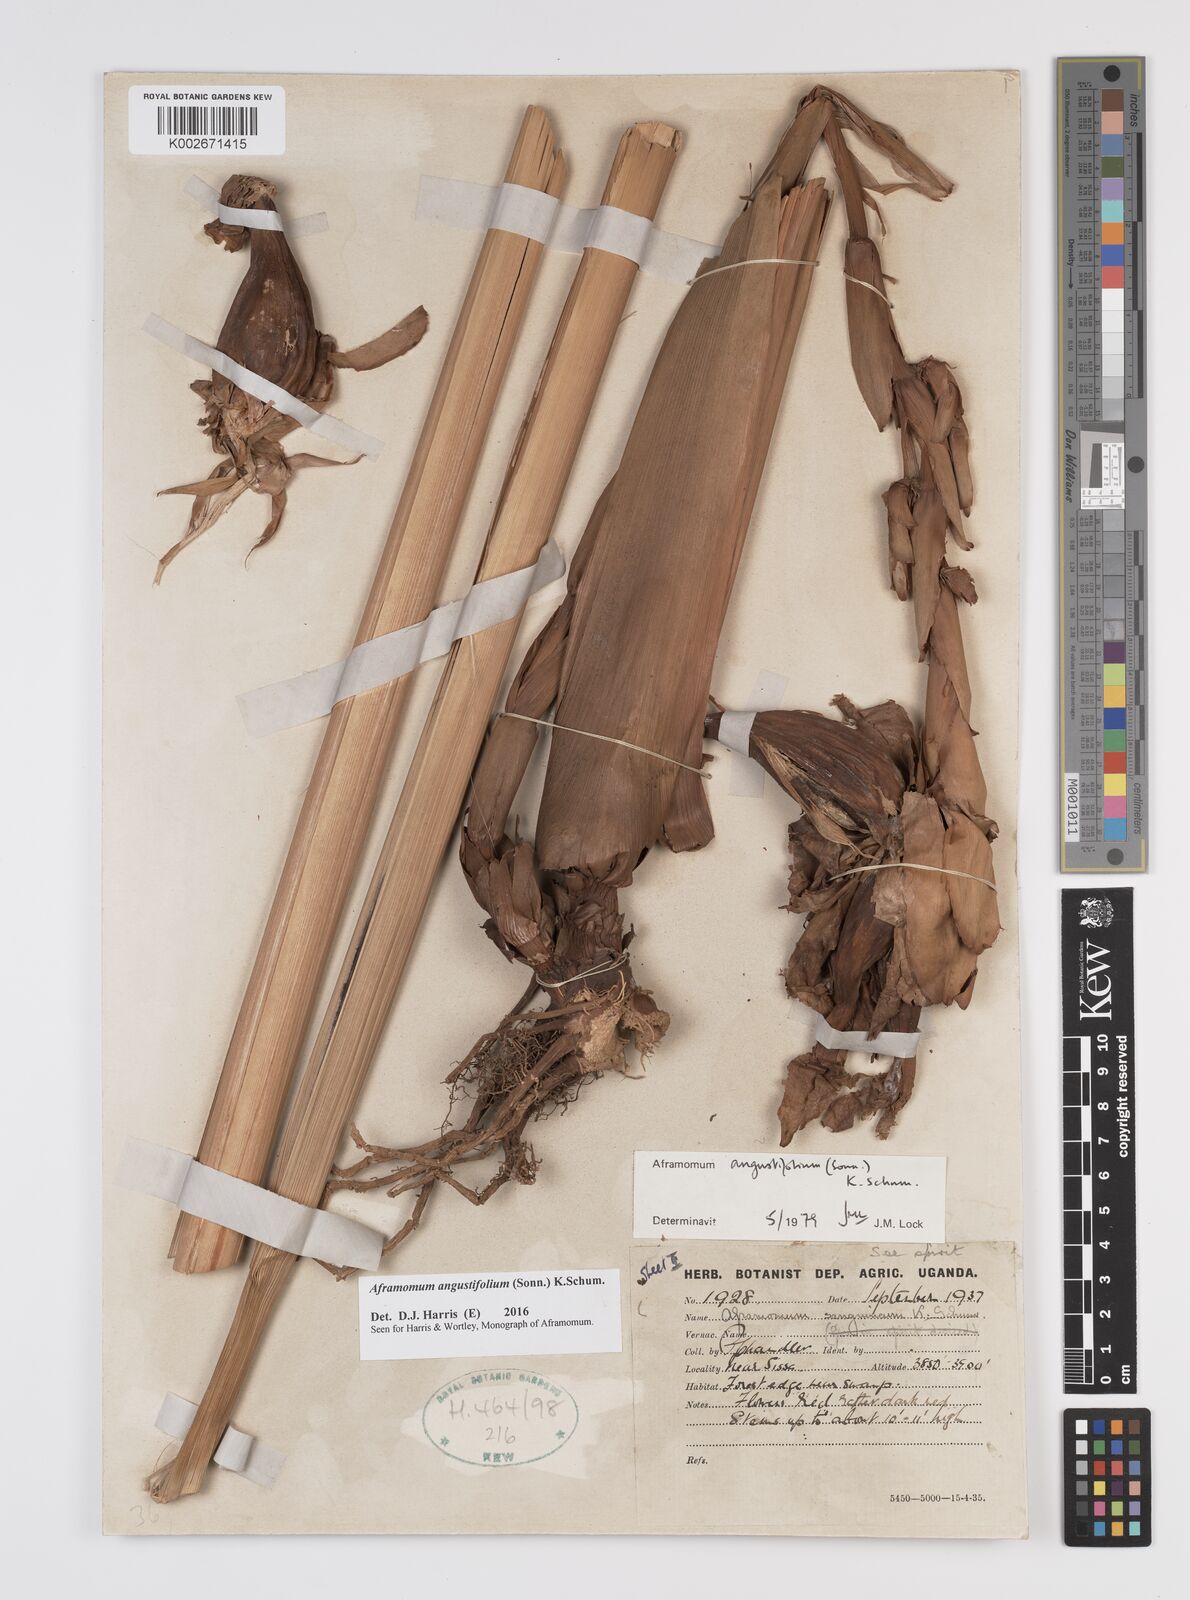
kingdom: Plantae
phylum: Tracheophyta
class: Liliopsida
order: Zingiberales
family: Zingiberaceae
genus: Aframomum
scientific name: Aframomum angustifolium
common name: Guinea grains
